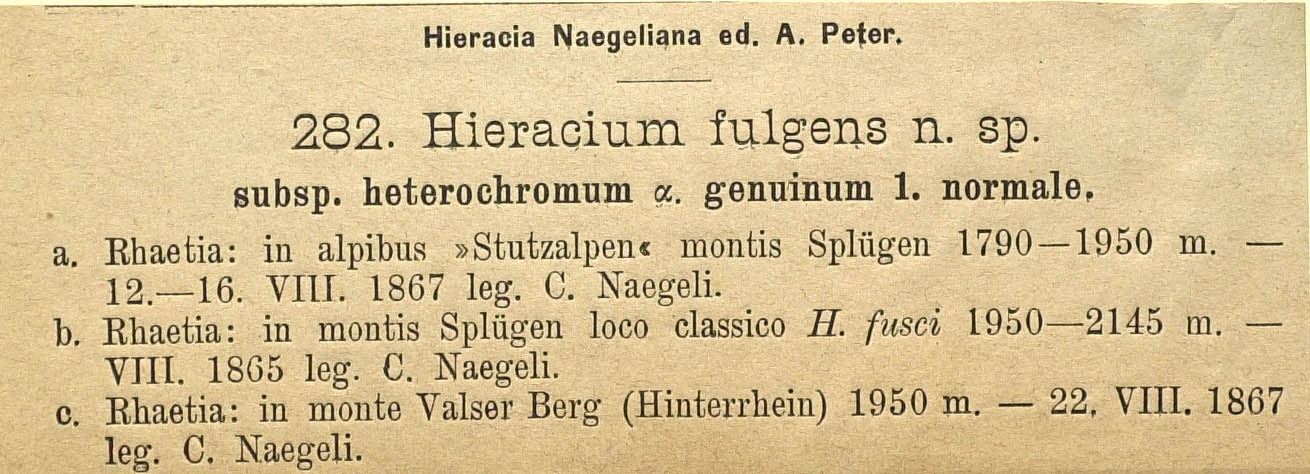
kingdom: Plantae
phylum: Tracheophyta
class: Magnoliopsida
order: Asterales
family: Asteraceae
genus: Pilosella
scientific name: Pilosella notha
